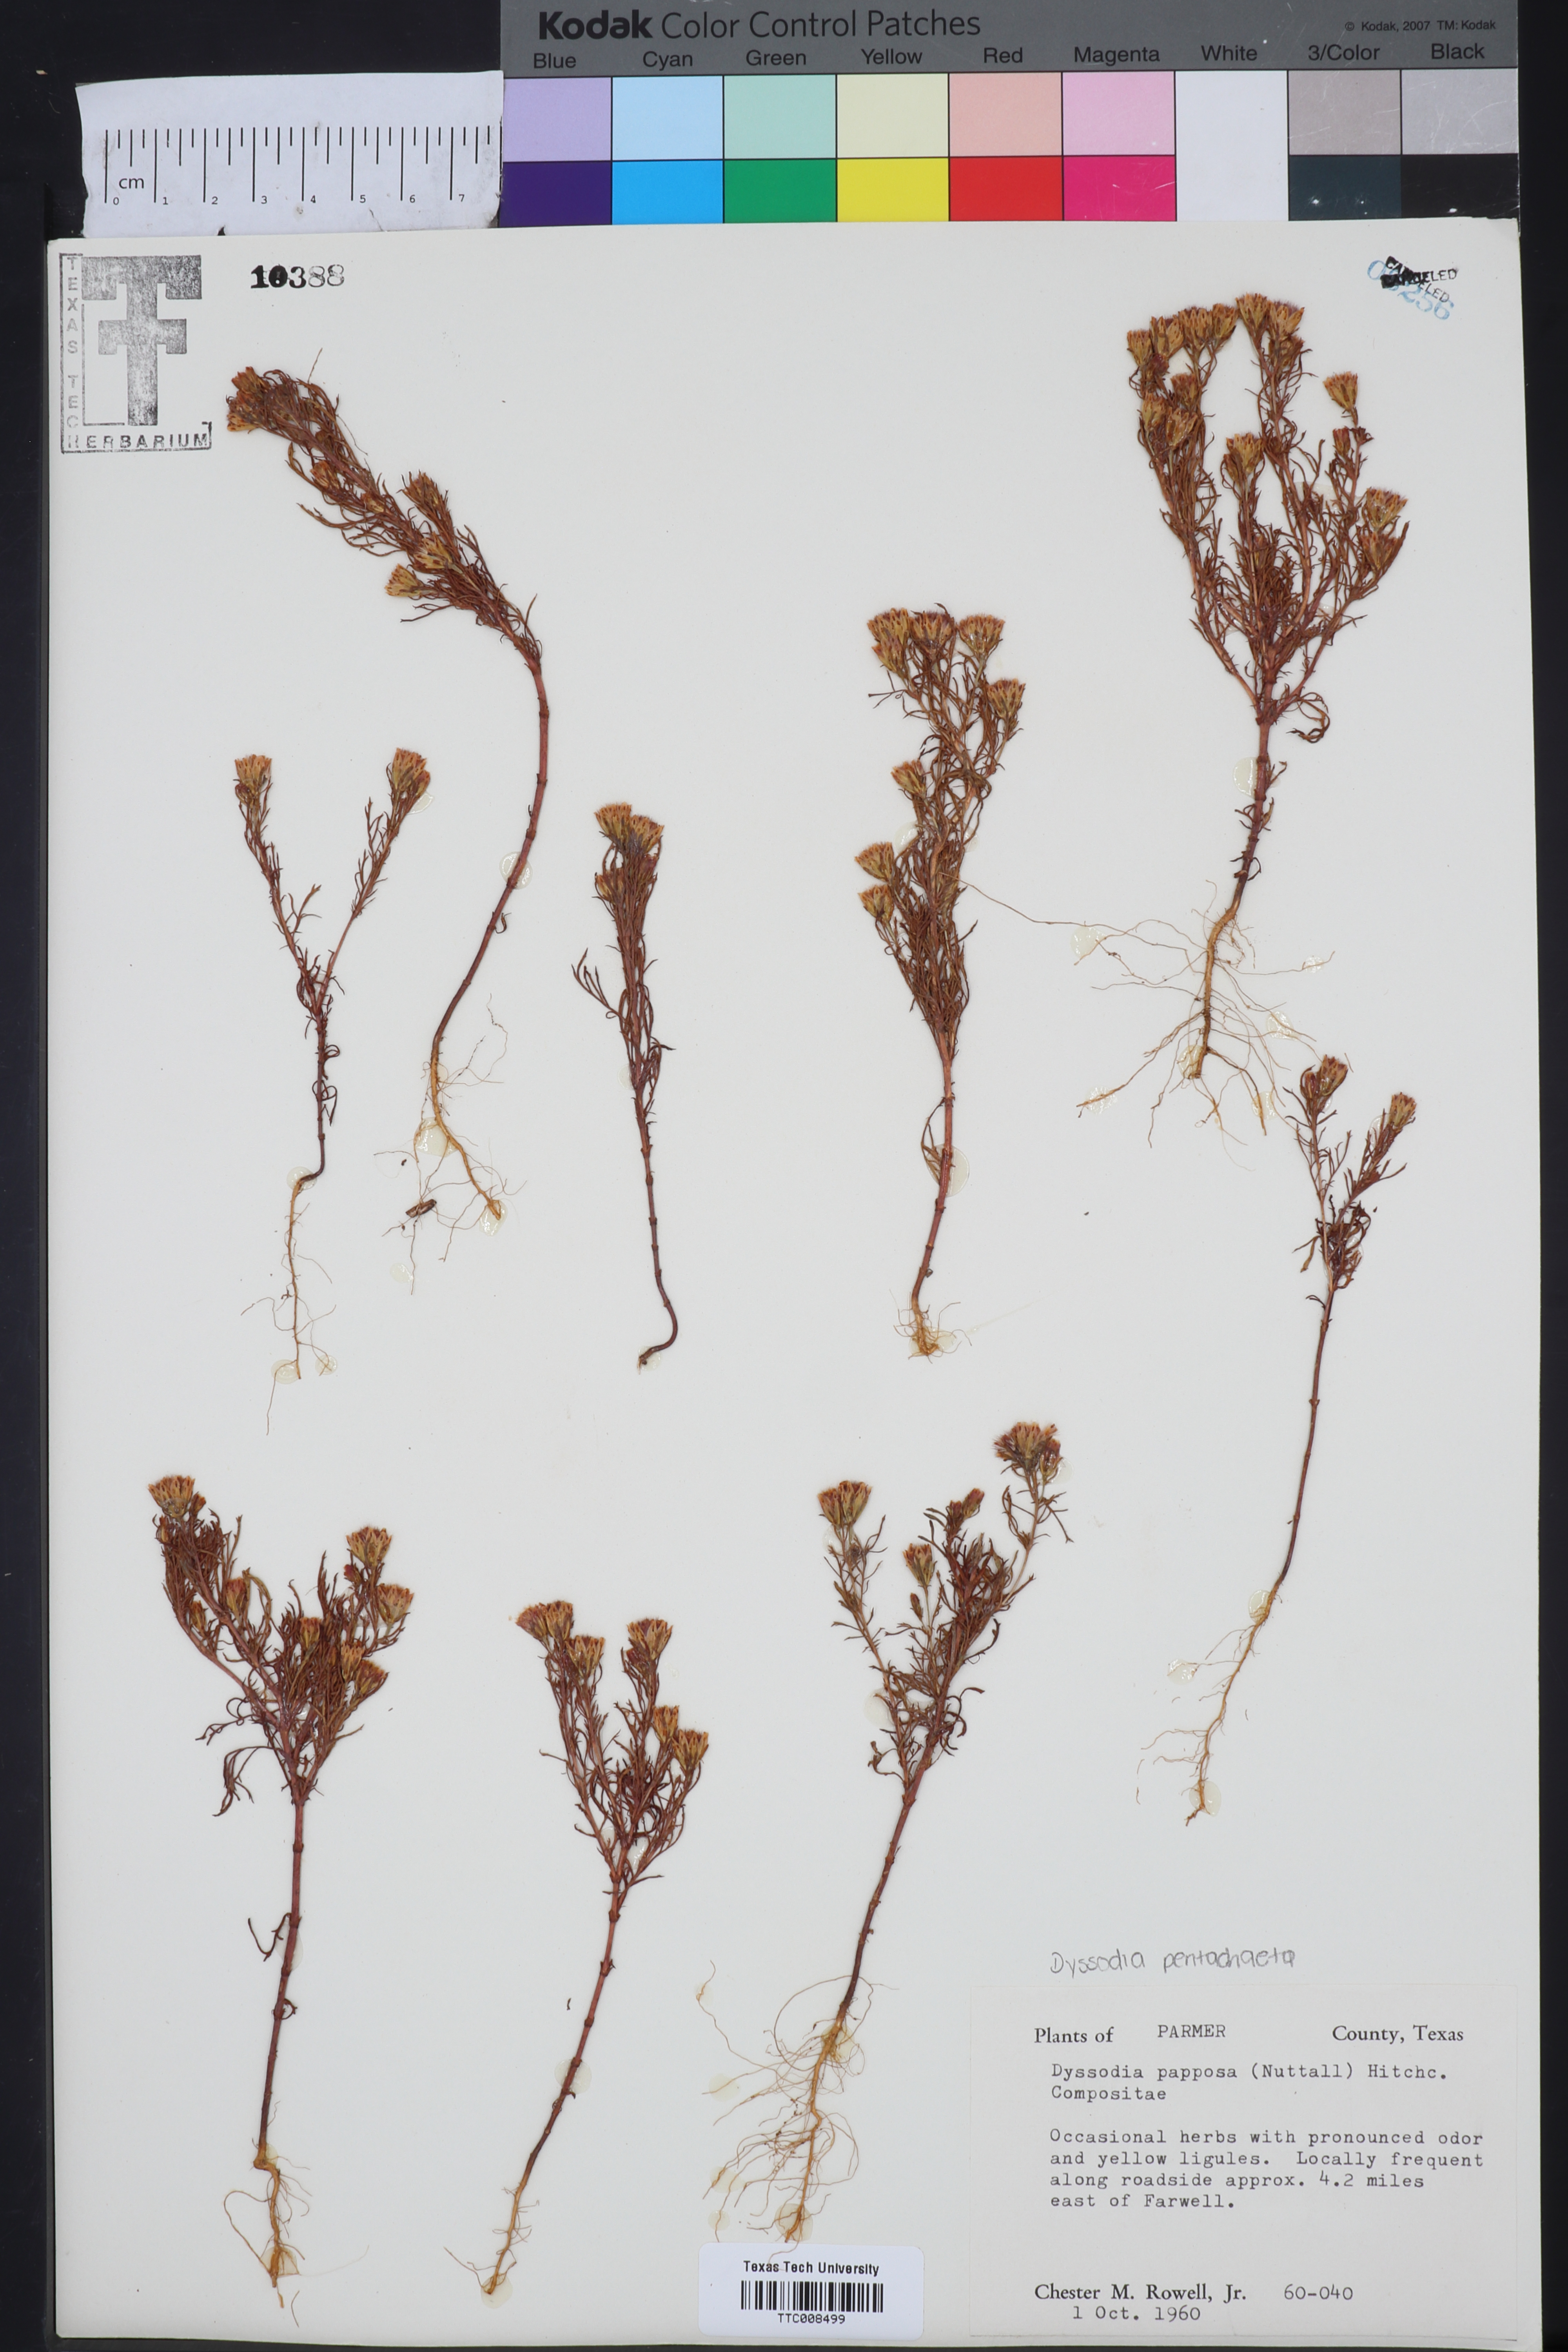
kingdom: Plantae
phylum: Tracheophyta
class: Magnoliopsida
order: Asterales
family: Asteraceae
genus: Dyssodia
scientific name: Dyssodia papposa
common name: Dogweed
